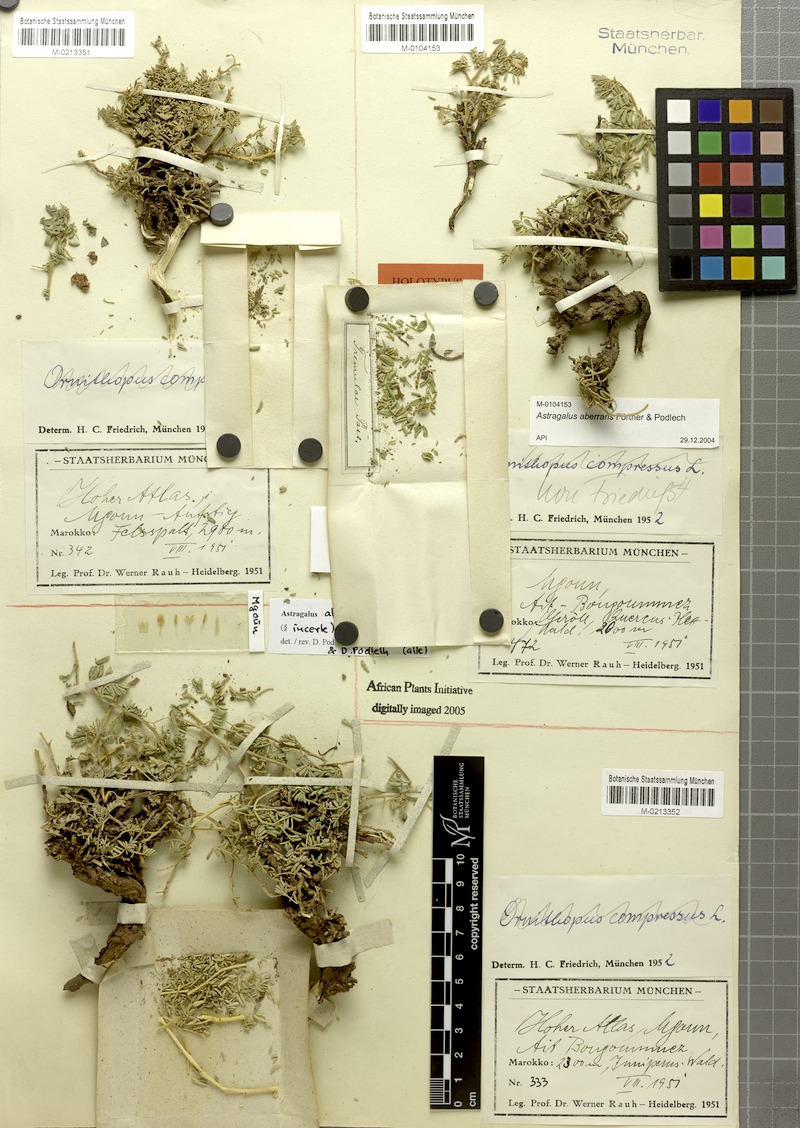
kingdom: Plantae
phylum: Tracheophyta
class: Magnoliopsida
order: Fabales
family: Fabaceae
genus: Astragalus
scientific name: Astragalus aberrans
